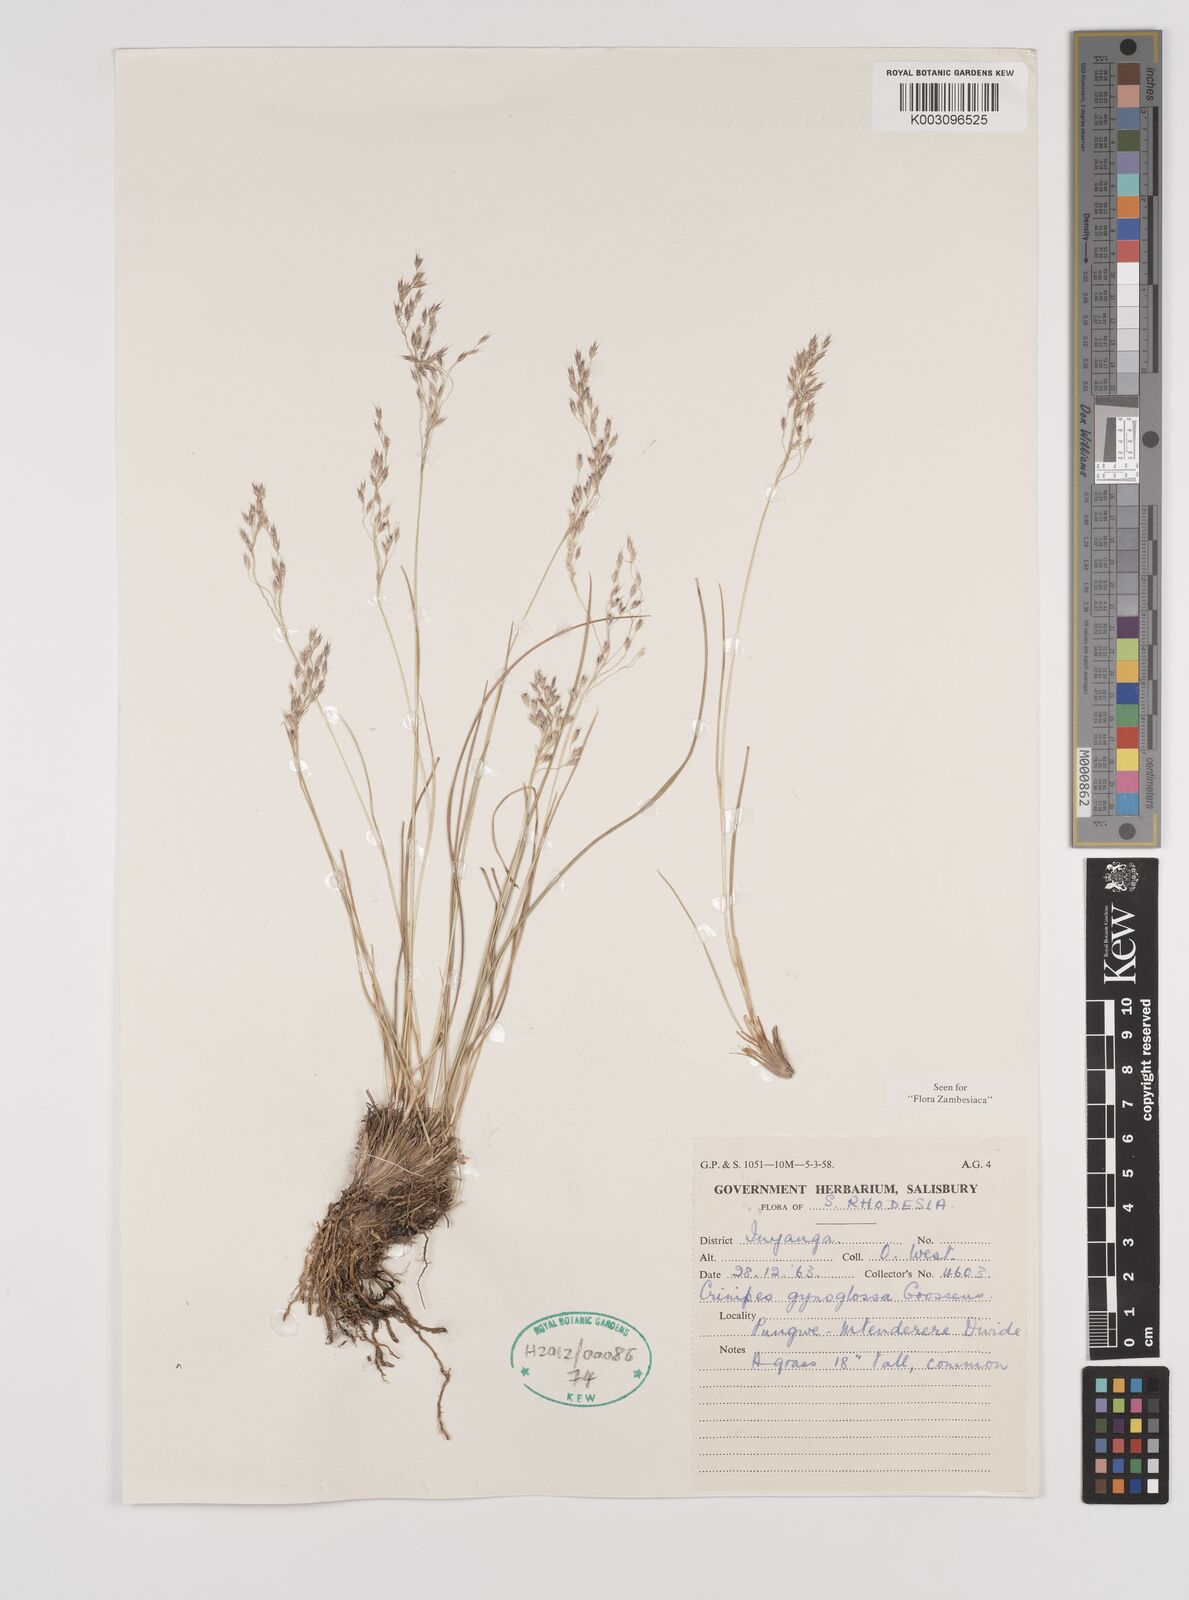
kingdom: Plantae
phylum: Tracheophyta
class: Liliopsida
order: Poales
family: Poaceae
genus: Styppeiochloa
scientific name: Styppeiochloa gynoglossa
